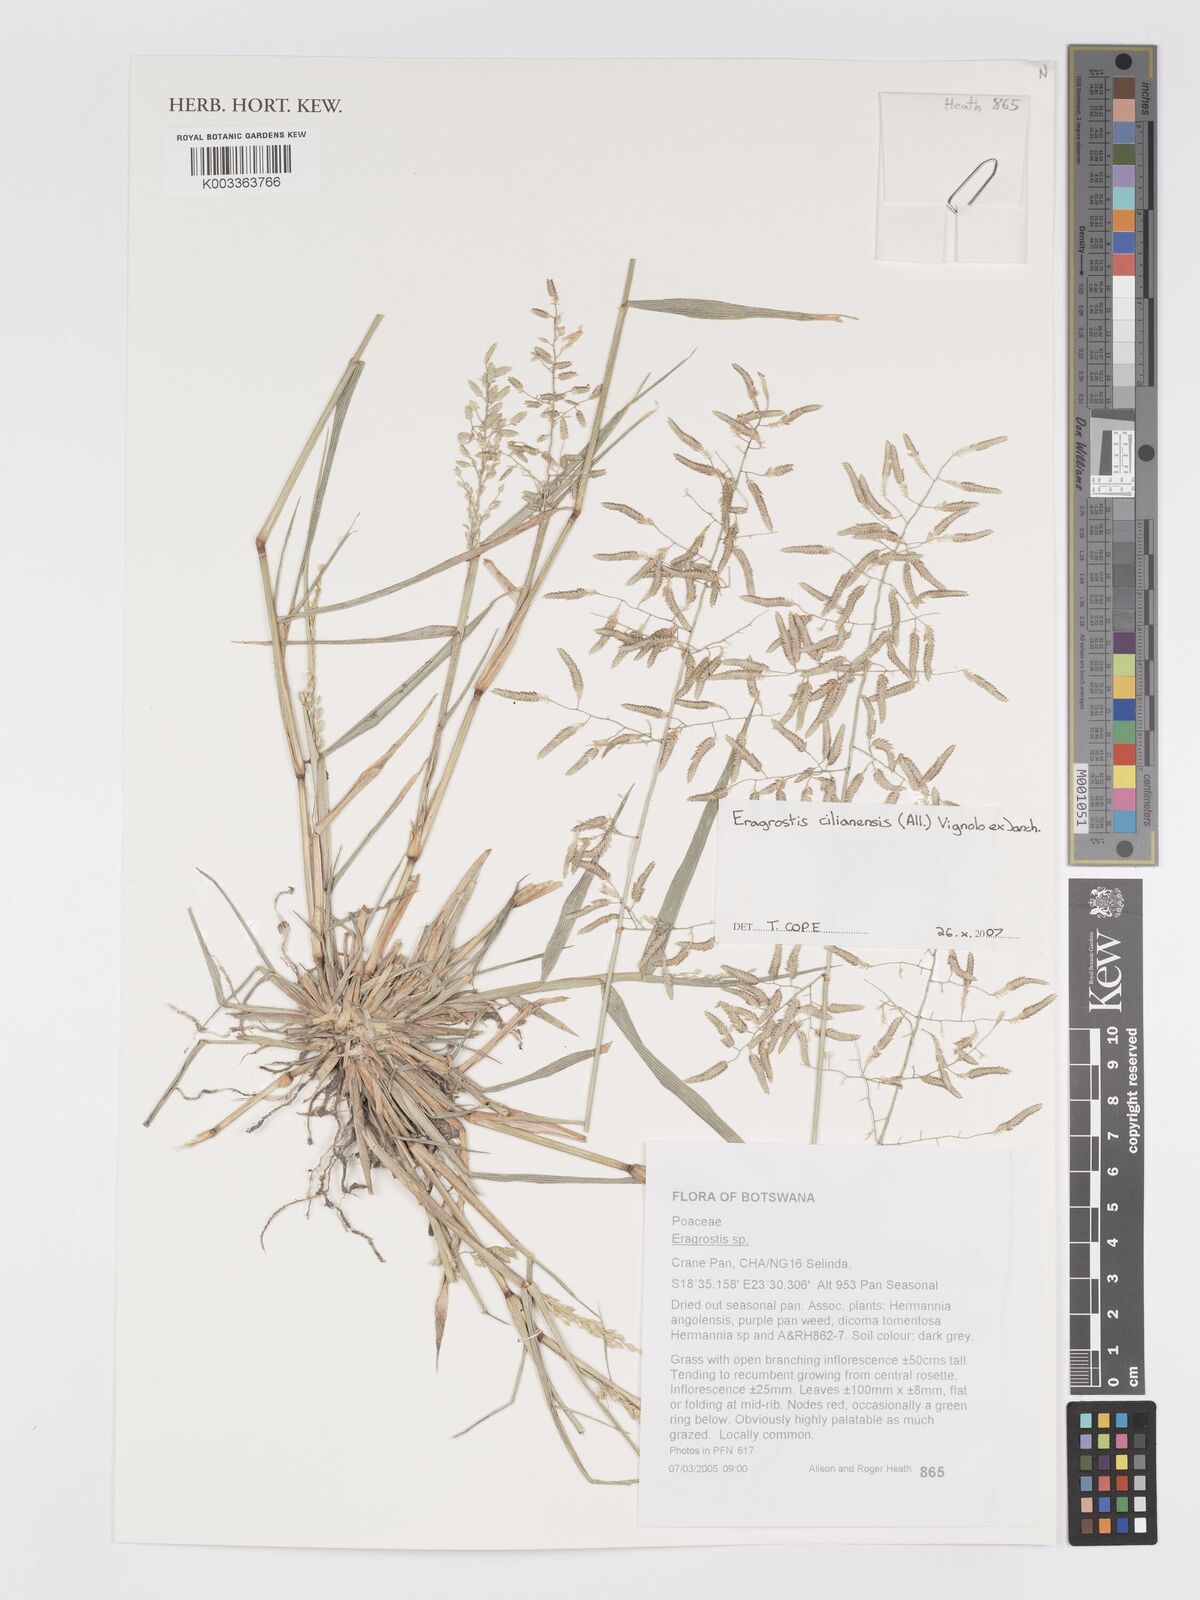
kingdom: Plantae
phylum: Tracheophyta
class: Liliopsida
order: Poales
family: Poaceae
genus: Eragrostis
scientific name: Eragrostis cilianensis
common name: Stinkgrass
